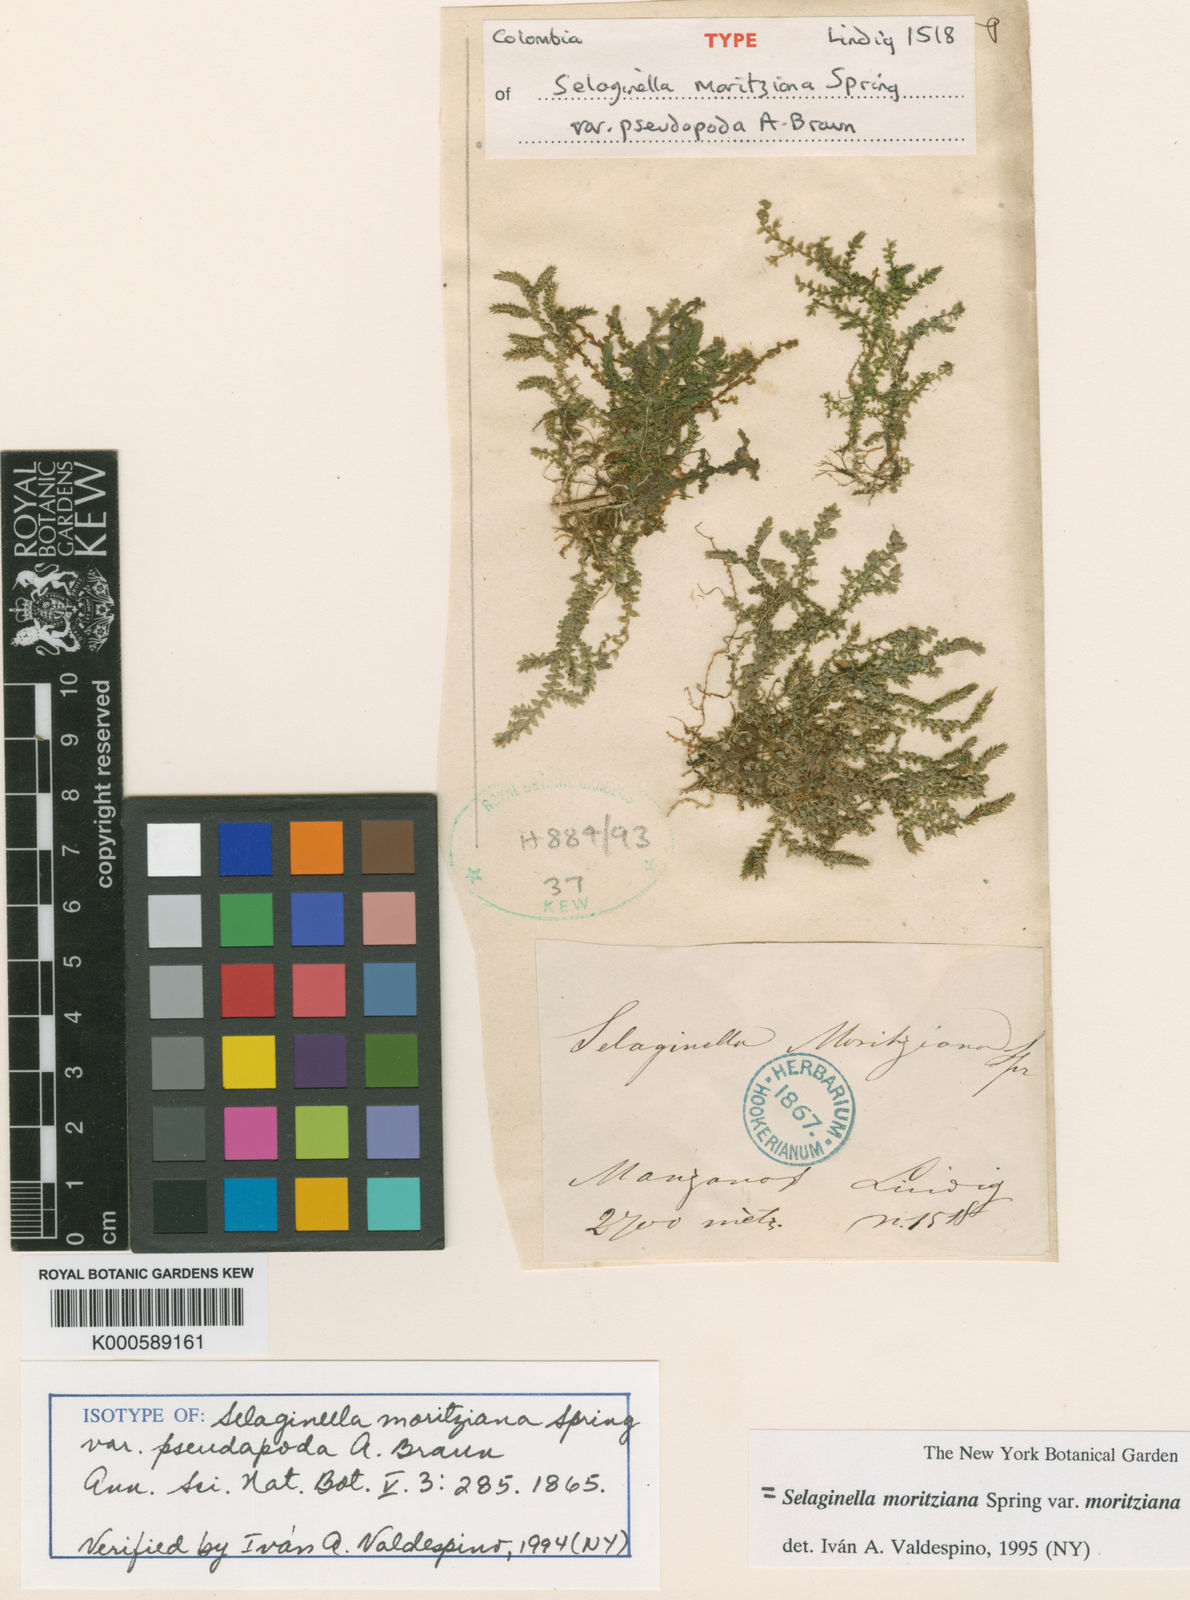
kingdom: Plantae
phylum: Tracheophyta
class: Lycopodiopsida
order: Selaginellales
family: Selaginellaceae
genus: Selaginella
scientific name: Selaginella moritziana
